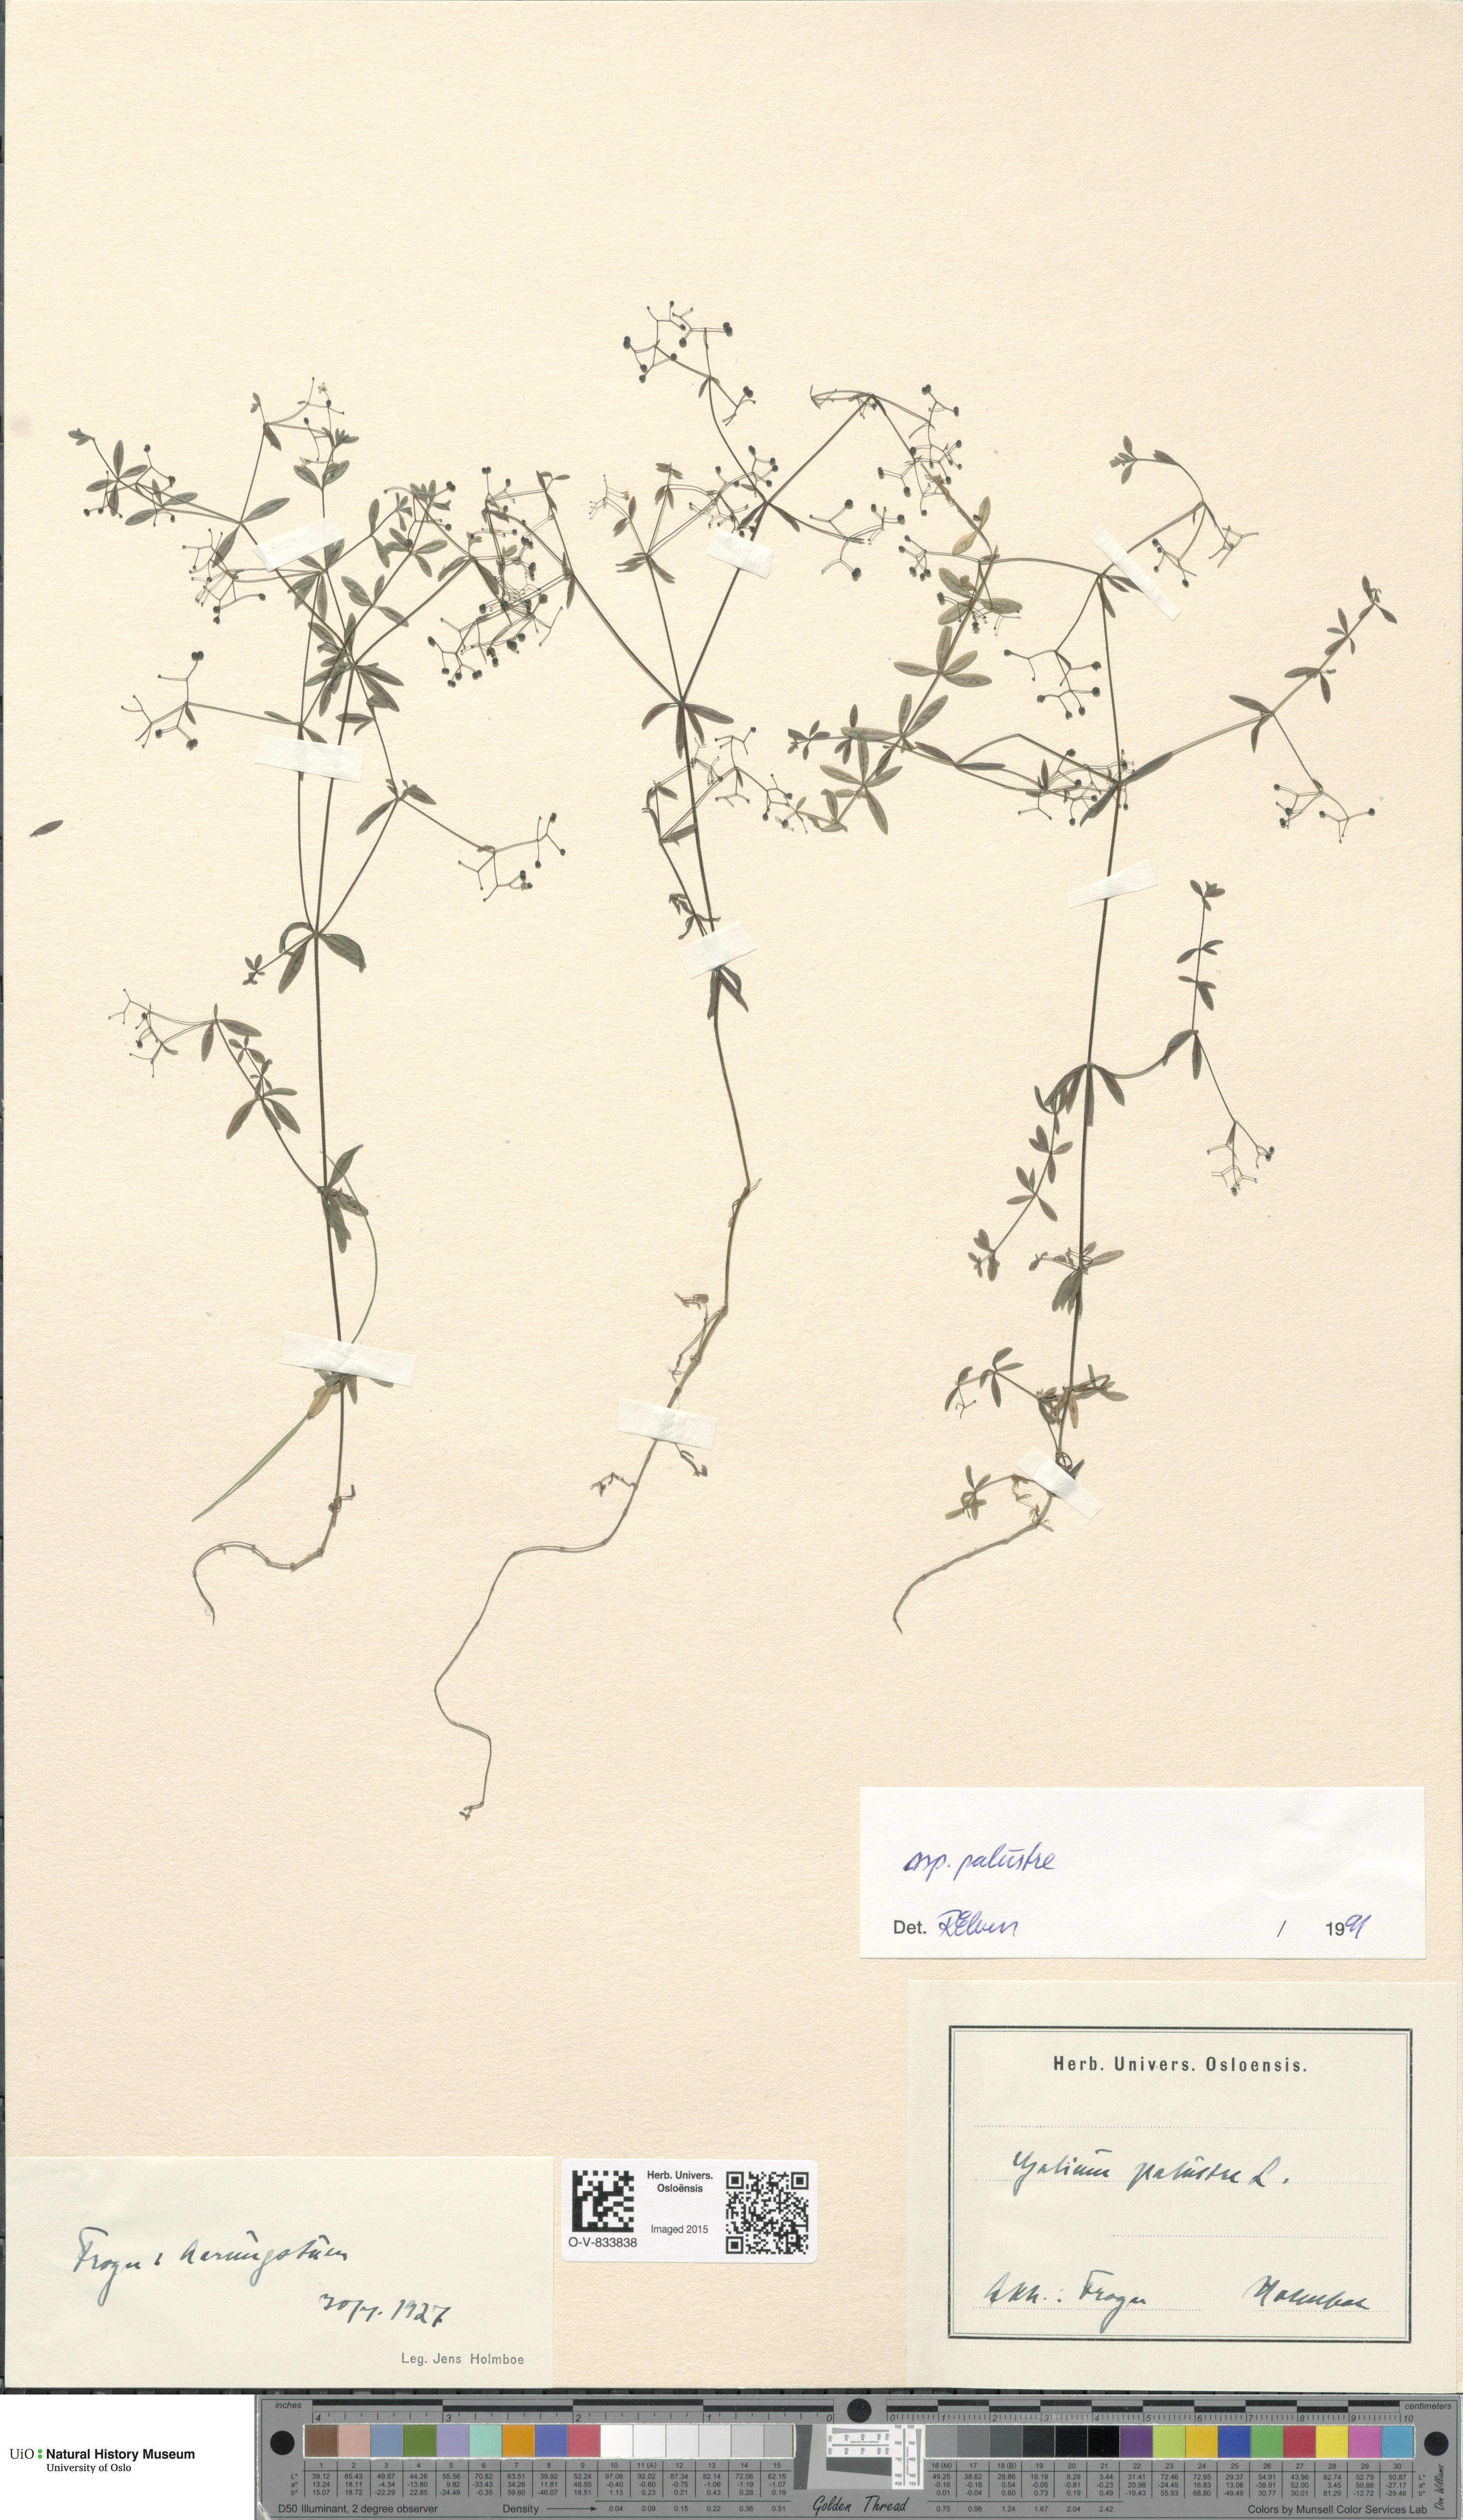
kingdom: Plantae
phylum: Tracheophyta
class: Magnoliopsida
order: Gentianales
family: Rubiaceae
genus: Galium
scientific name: Galium palustre
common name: Common marsh-bedstraw
